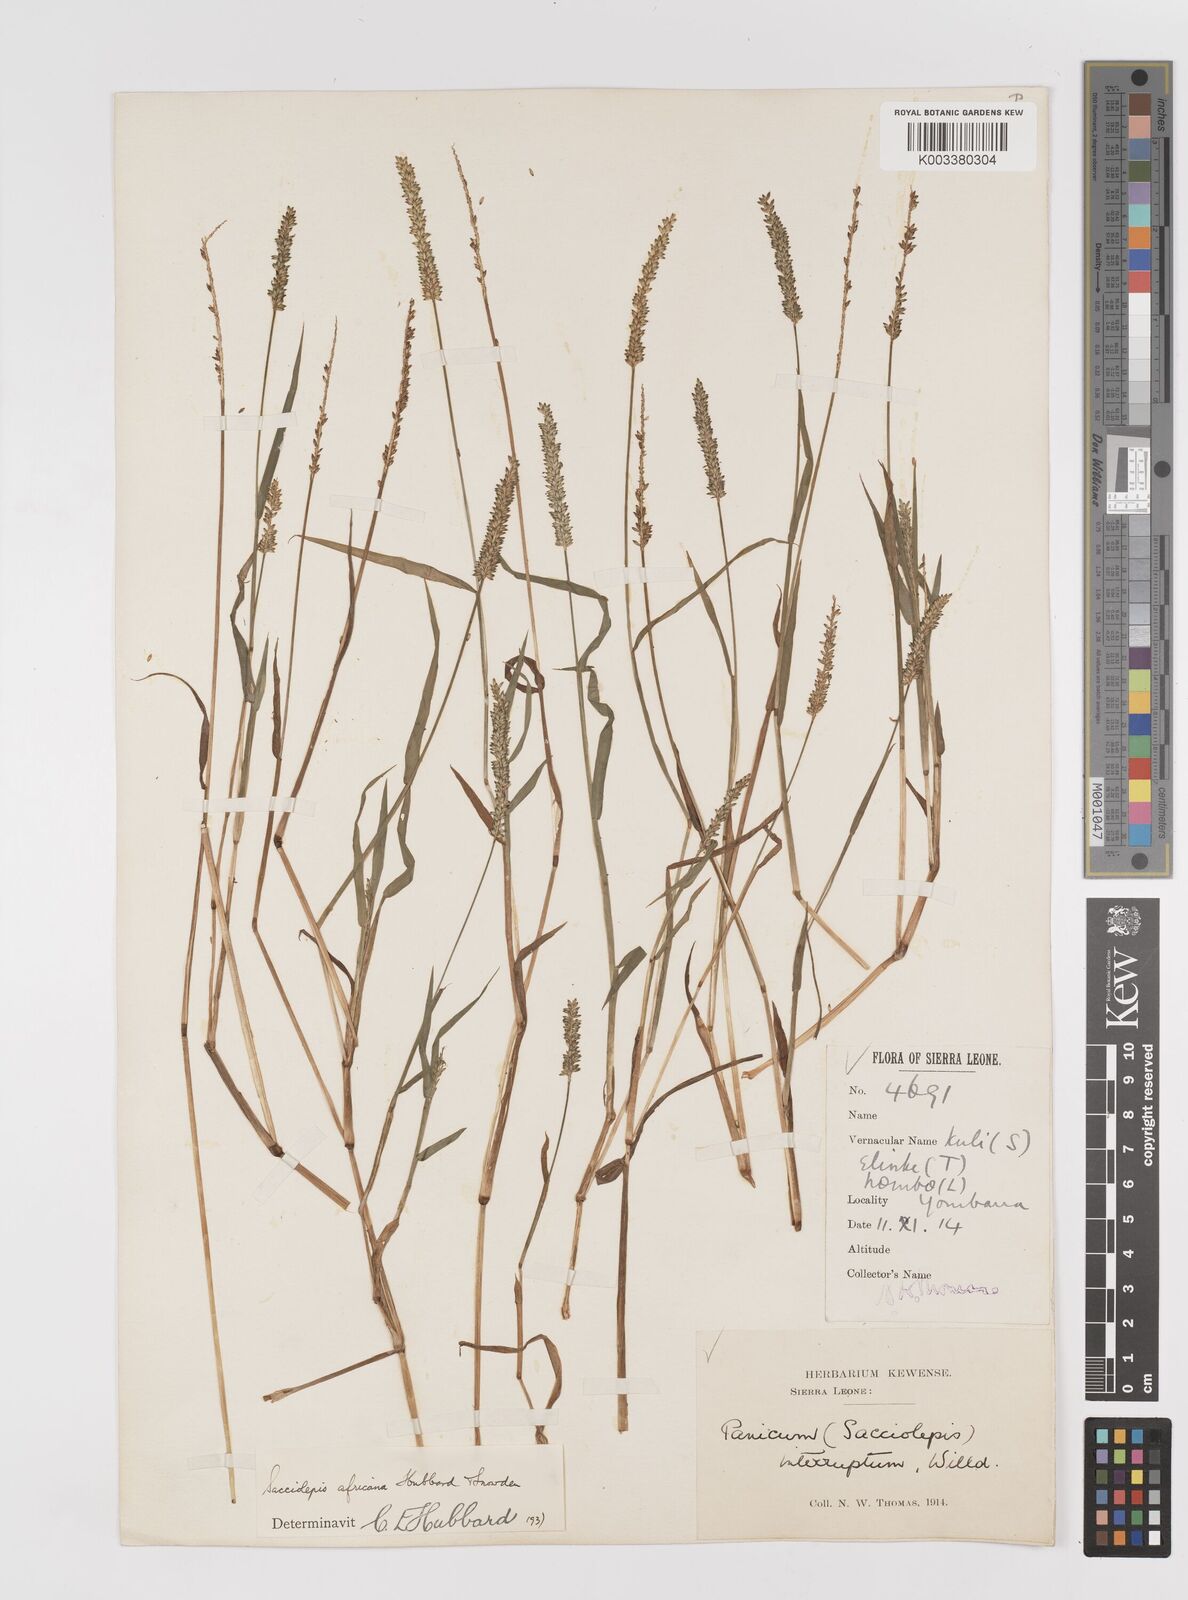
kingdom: Plantae
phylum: Tracheophyta
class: Liliopsida
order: Poales
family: Poaceae
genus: Sacciolepis
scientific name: Sacciolepis africana
